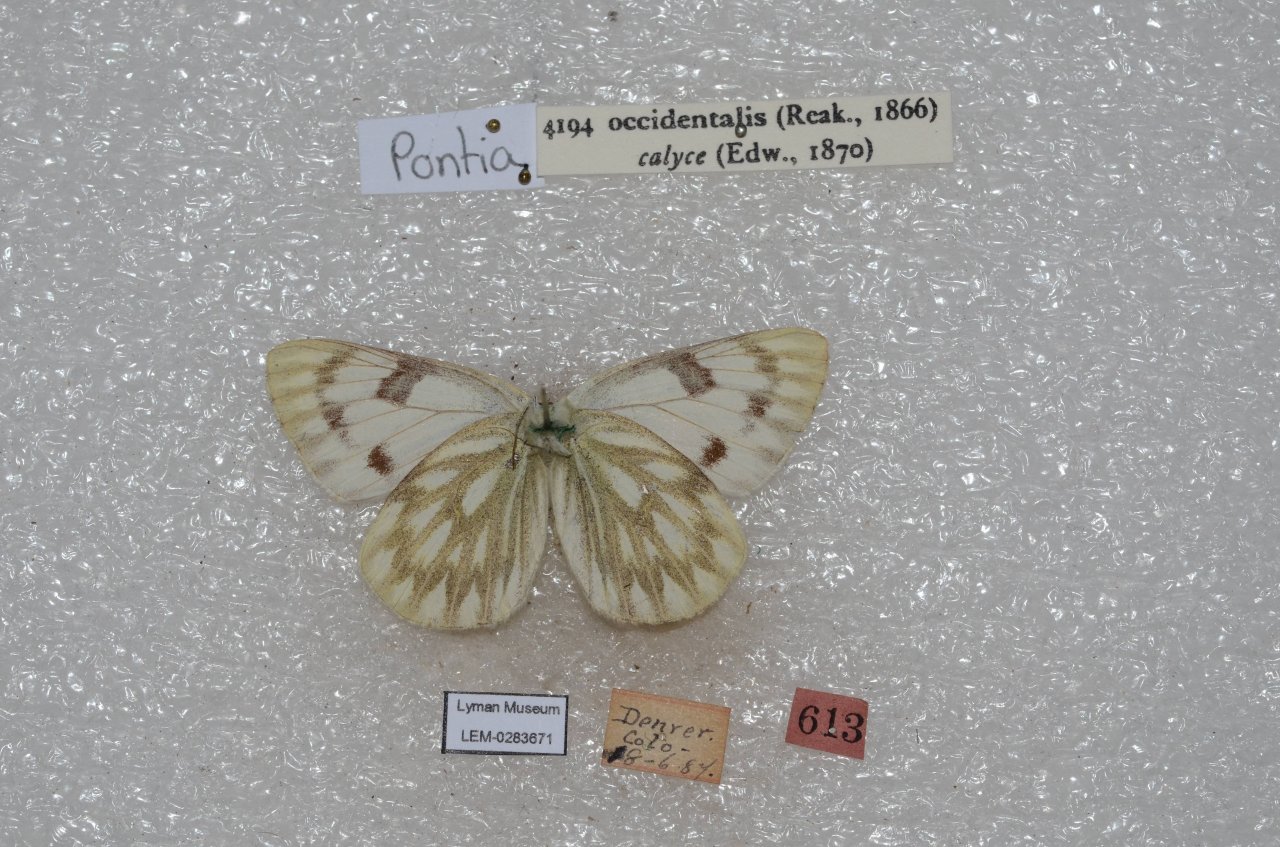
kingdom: Animalia
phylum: Arthropoda
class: Insecta
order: Lepidoptera
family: Pieridae
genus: Pontia
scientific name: Pontia occidentalis
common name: Western White
